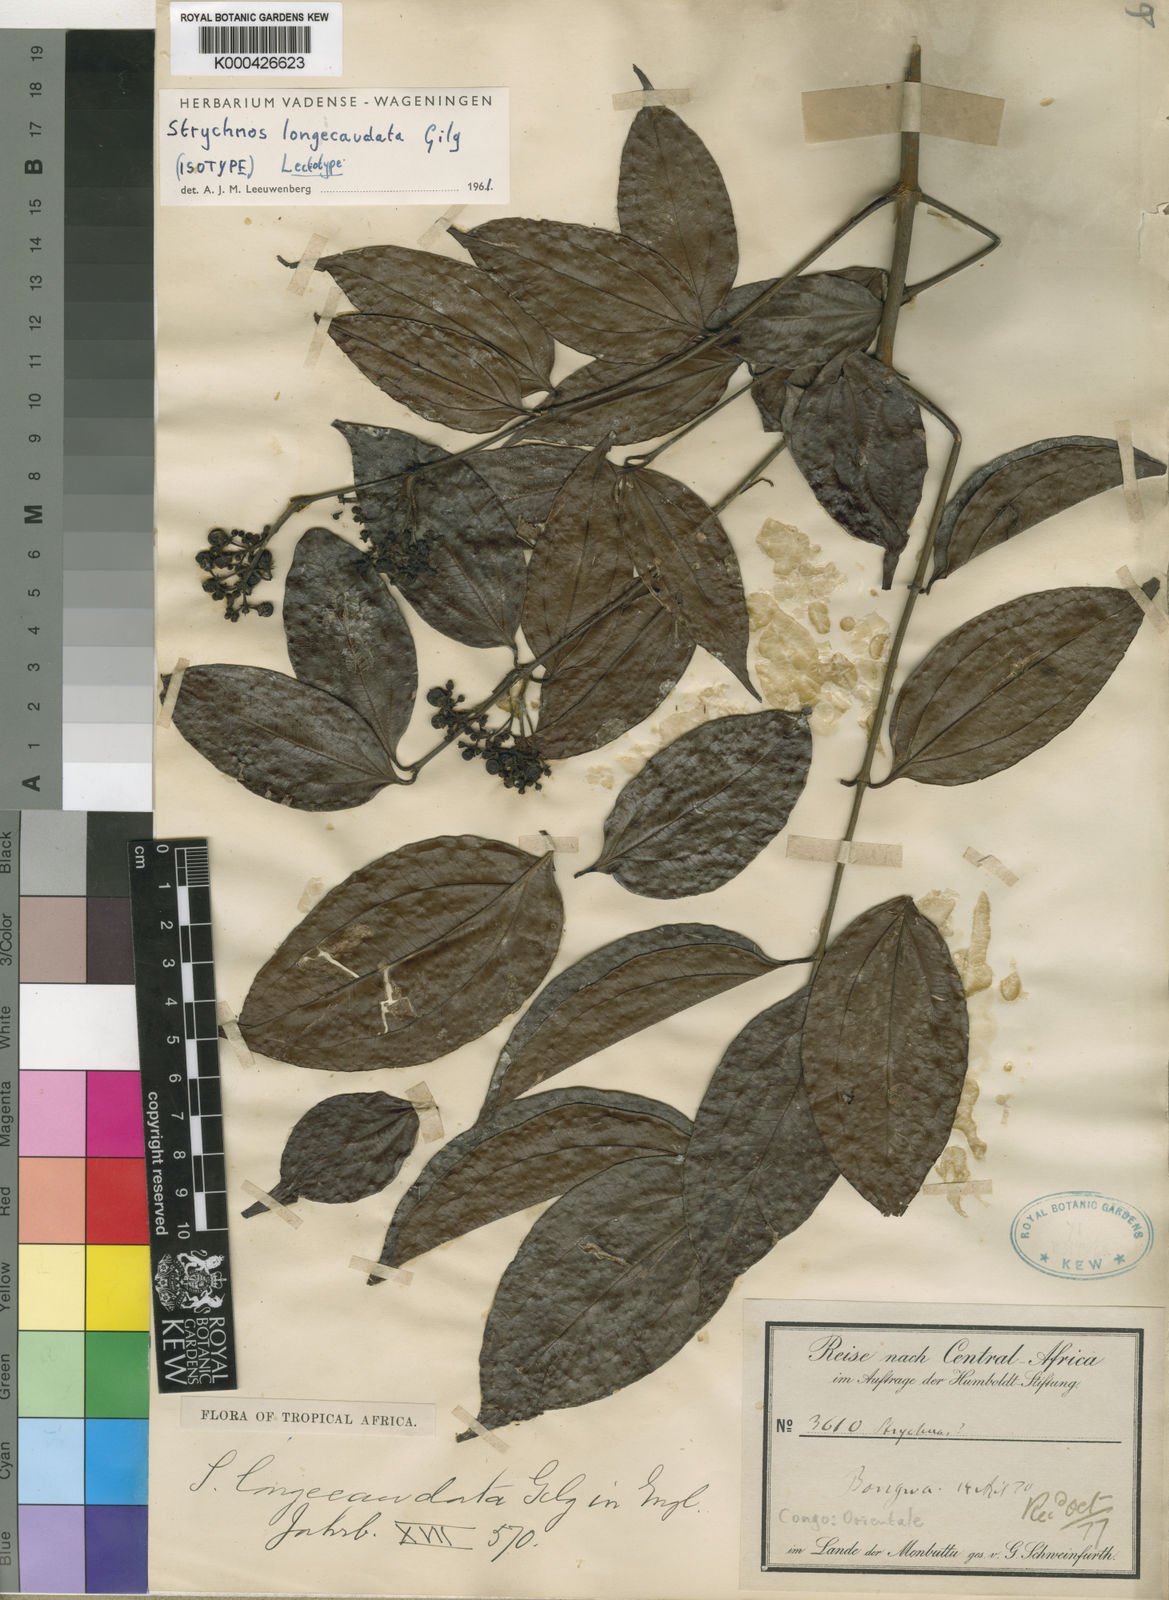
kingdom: Plantae
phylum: Tracheophyta
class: Magnoliopsida
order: Gentianales
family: Loganiaceae
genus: Strychnos
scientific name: Strychnos longicaudata
